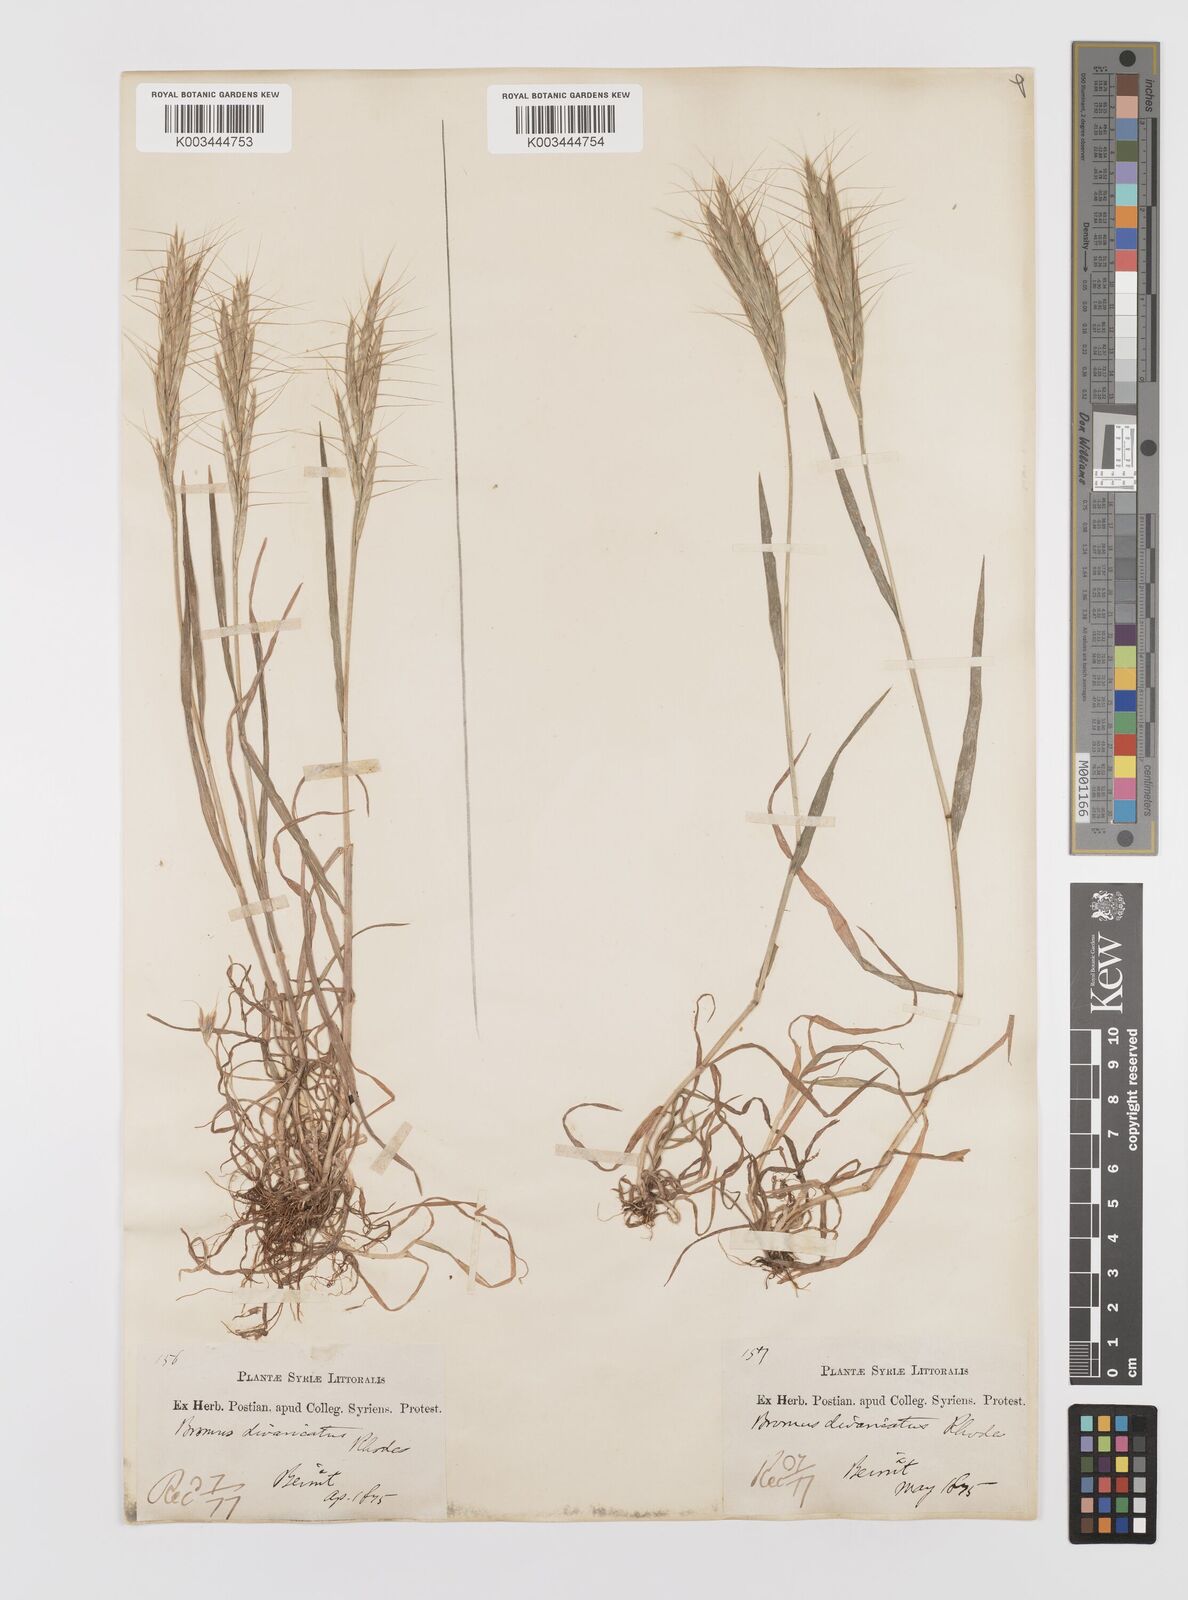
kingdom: Plantae
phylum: Tracheophyta
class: Liliopsida
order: Poales
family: Poaceae
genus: Bromus
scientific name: Bromus alopecuros
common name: Weedy brome
